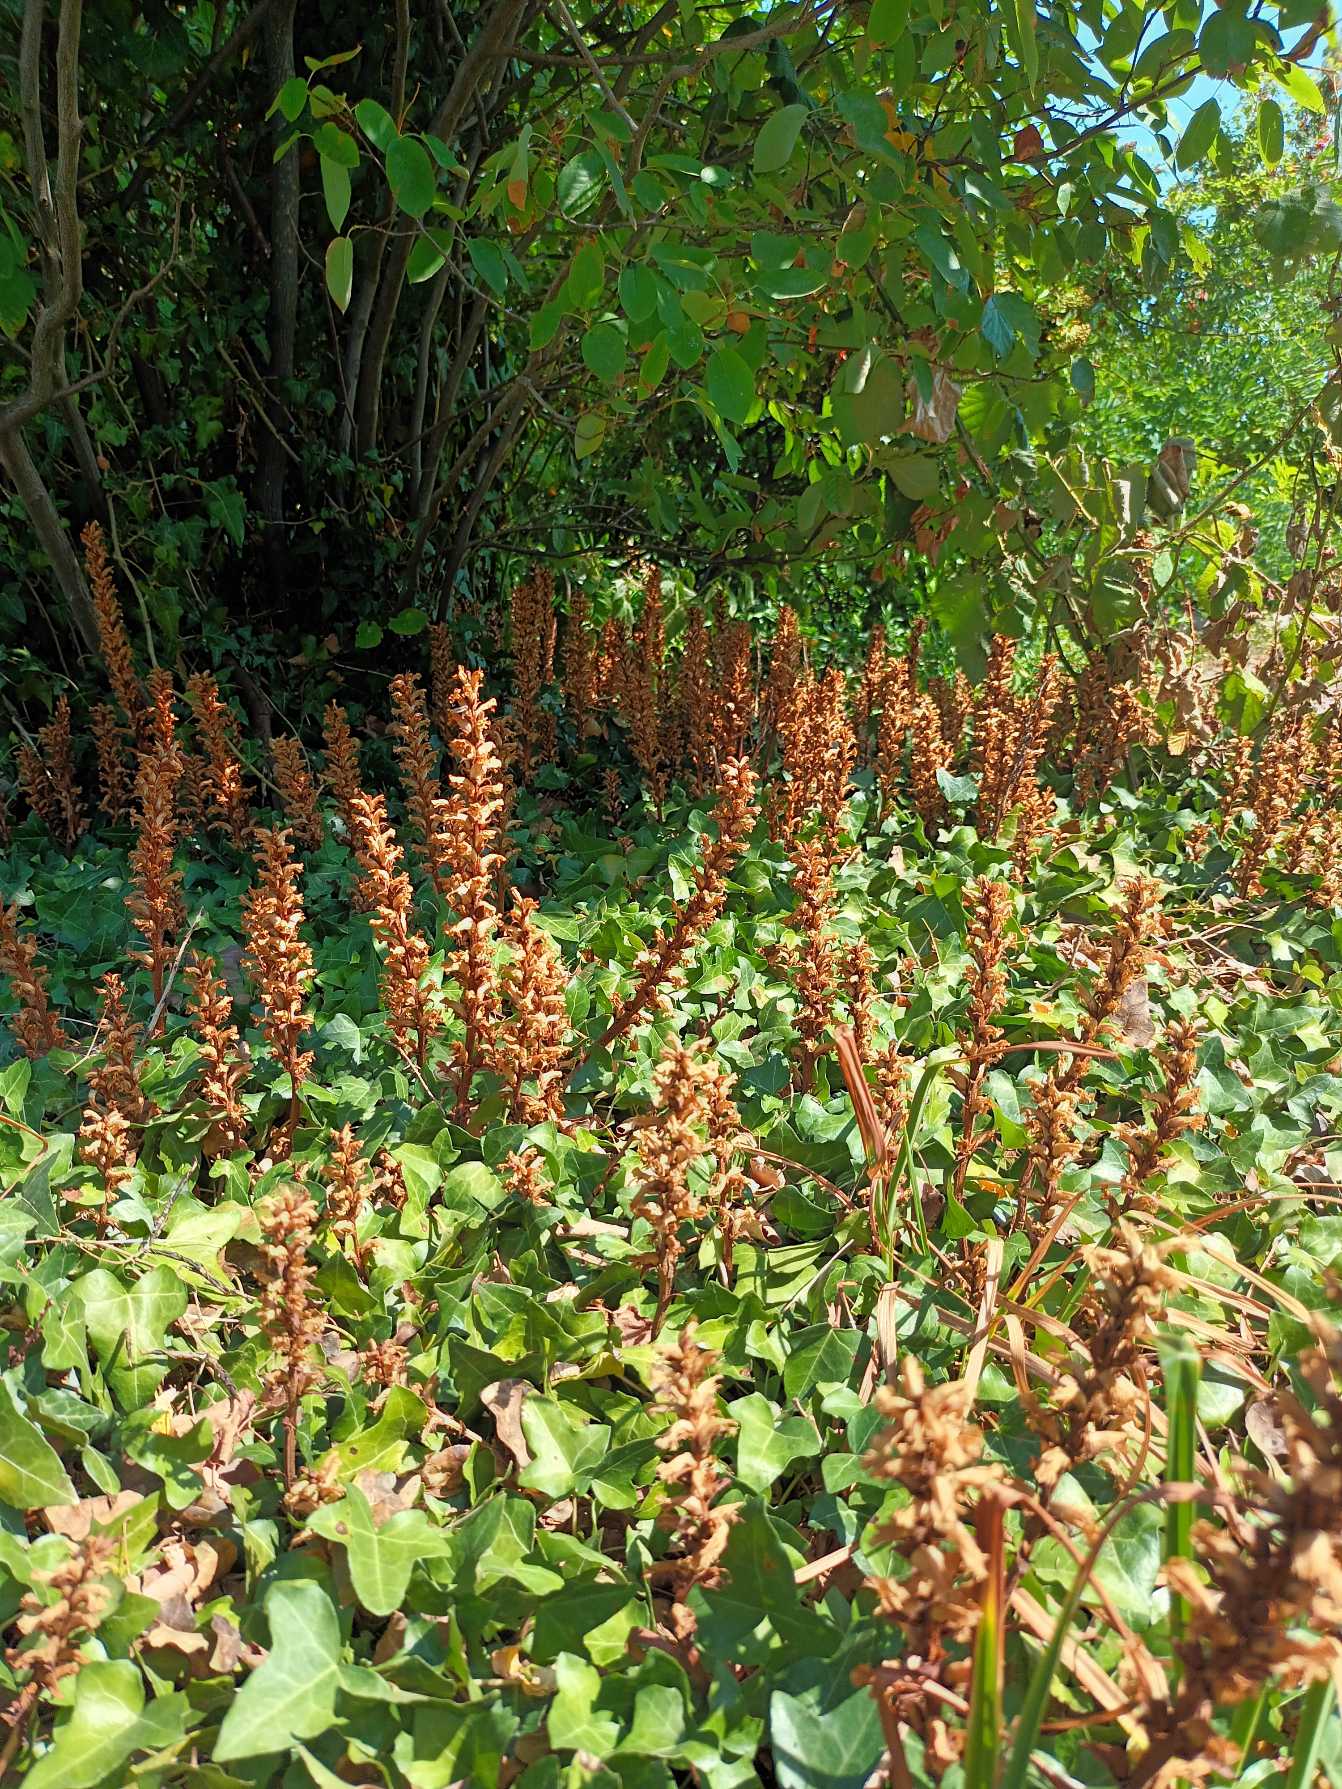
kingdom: Plantae
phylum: Tracheophyta
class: Magnoliopsida
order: Lamiales
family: Orobanchaceae
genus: Orobanche
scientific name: Orobanche hederae
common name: Vedbend-gyvelkvæler
